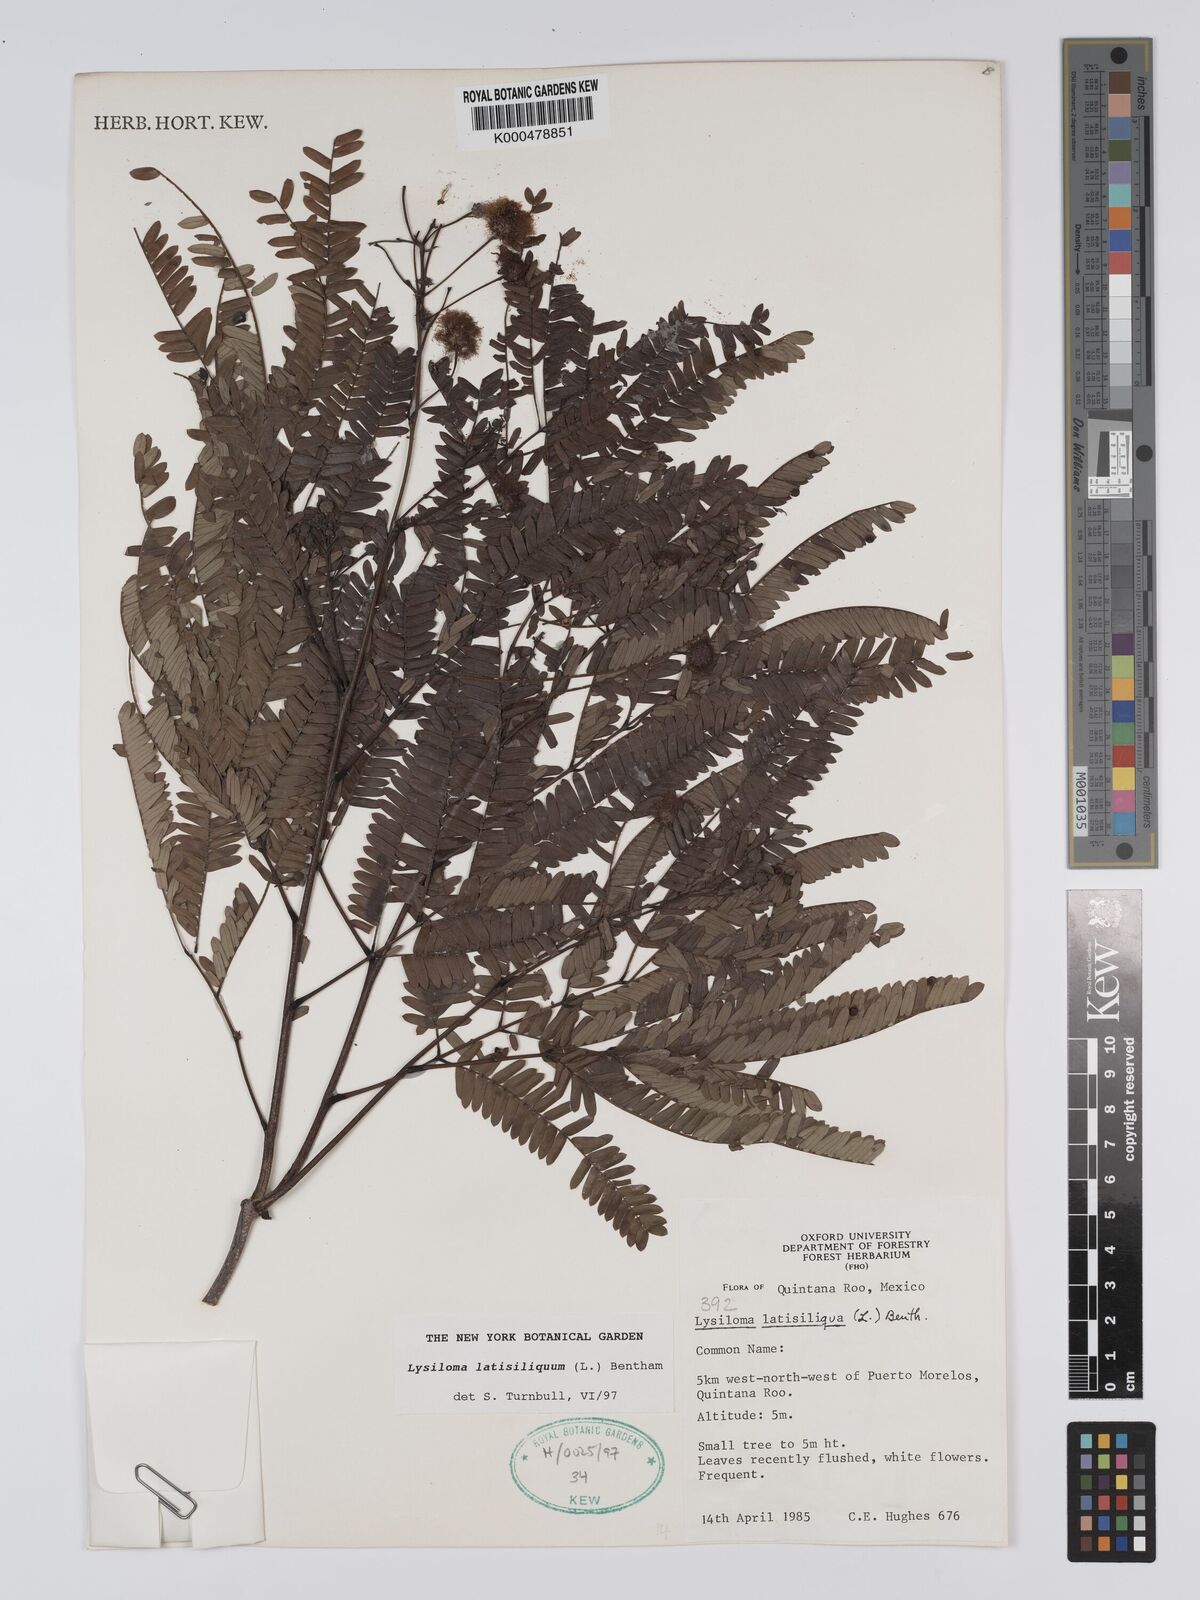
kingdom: Plantae
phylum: Tracheophyta
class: Magnoliopsida
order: Fabales
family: Fabaceae
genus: Lysiloma
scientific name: Lysiloma latisiliquum
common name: Wild tamarind
